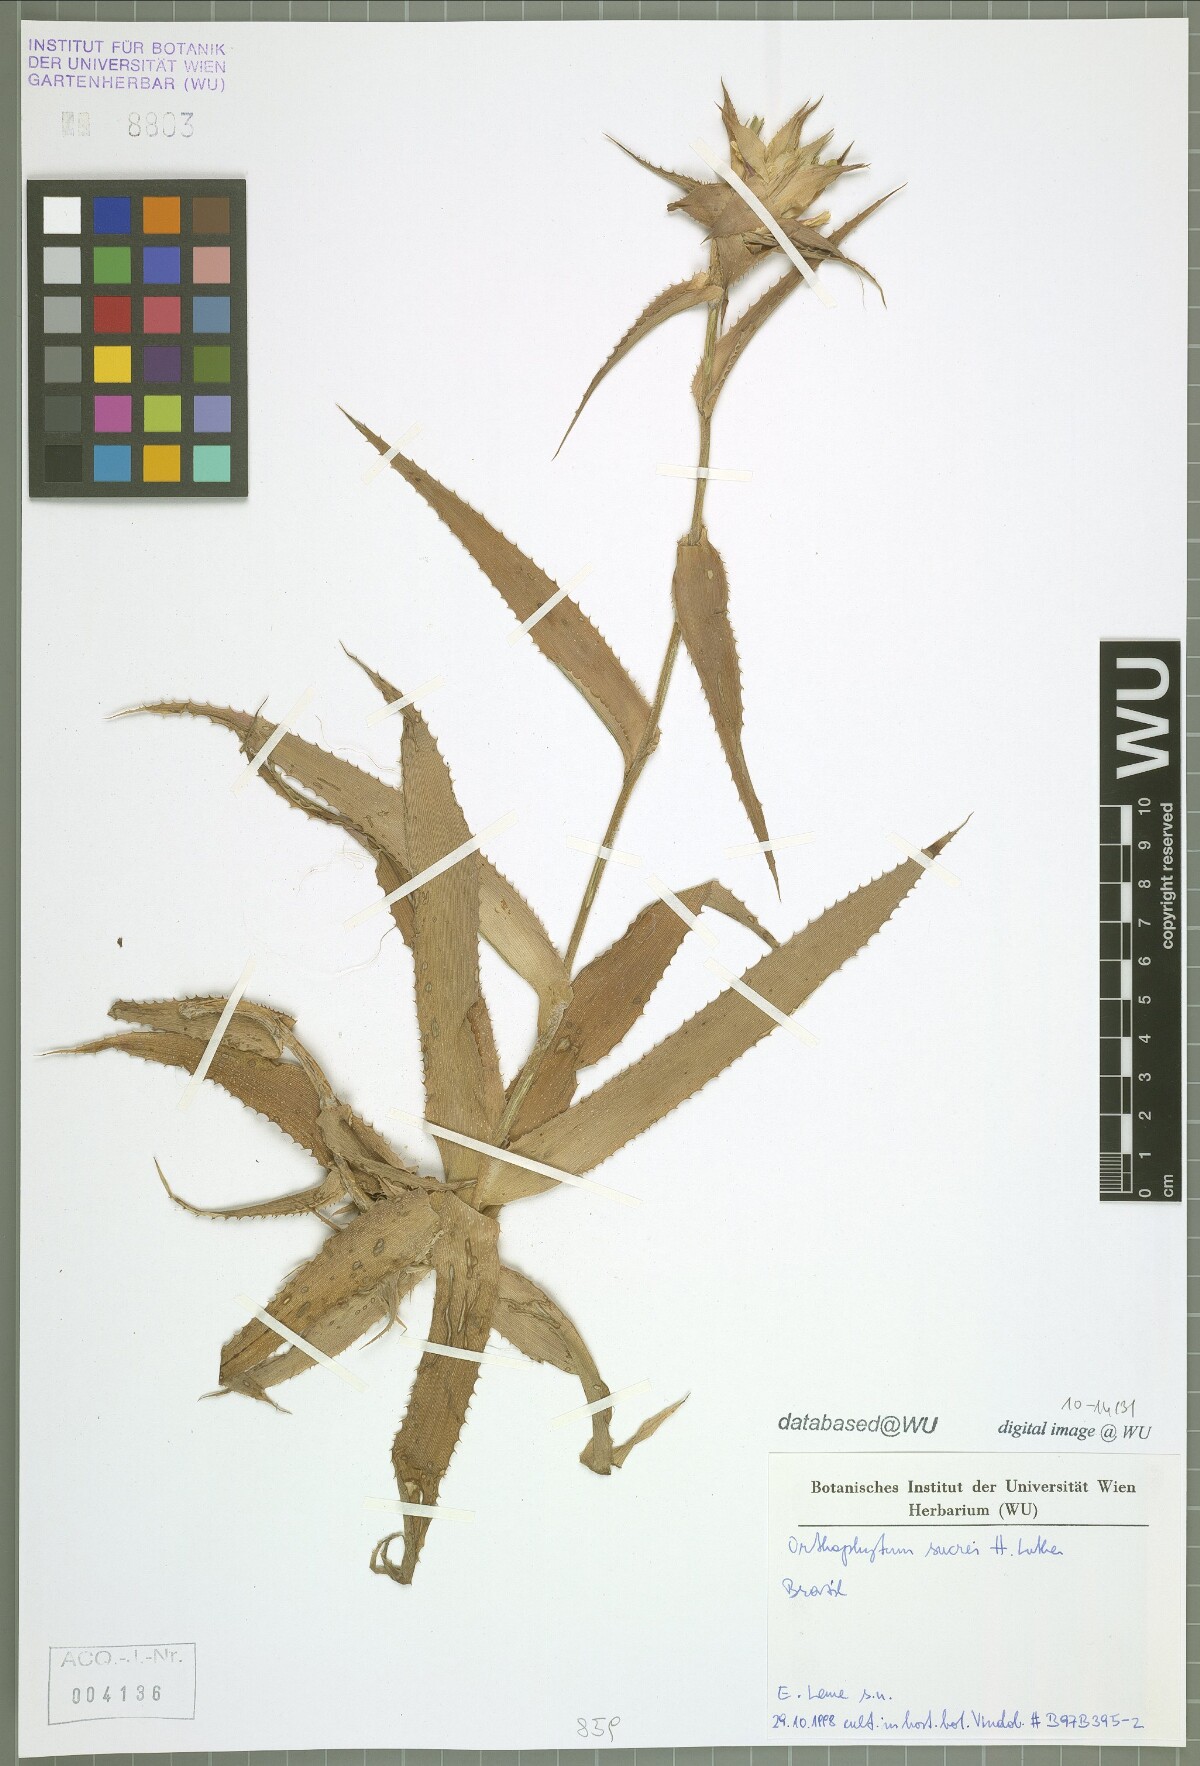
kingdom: Plantae
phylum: Tracheophyta
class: Liliopsida
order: Poales
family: Bromeliaceae
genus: Orthophytum
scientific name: Orthophytum sucrei
